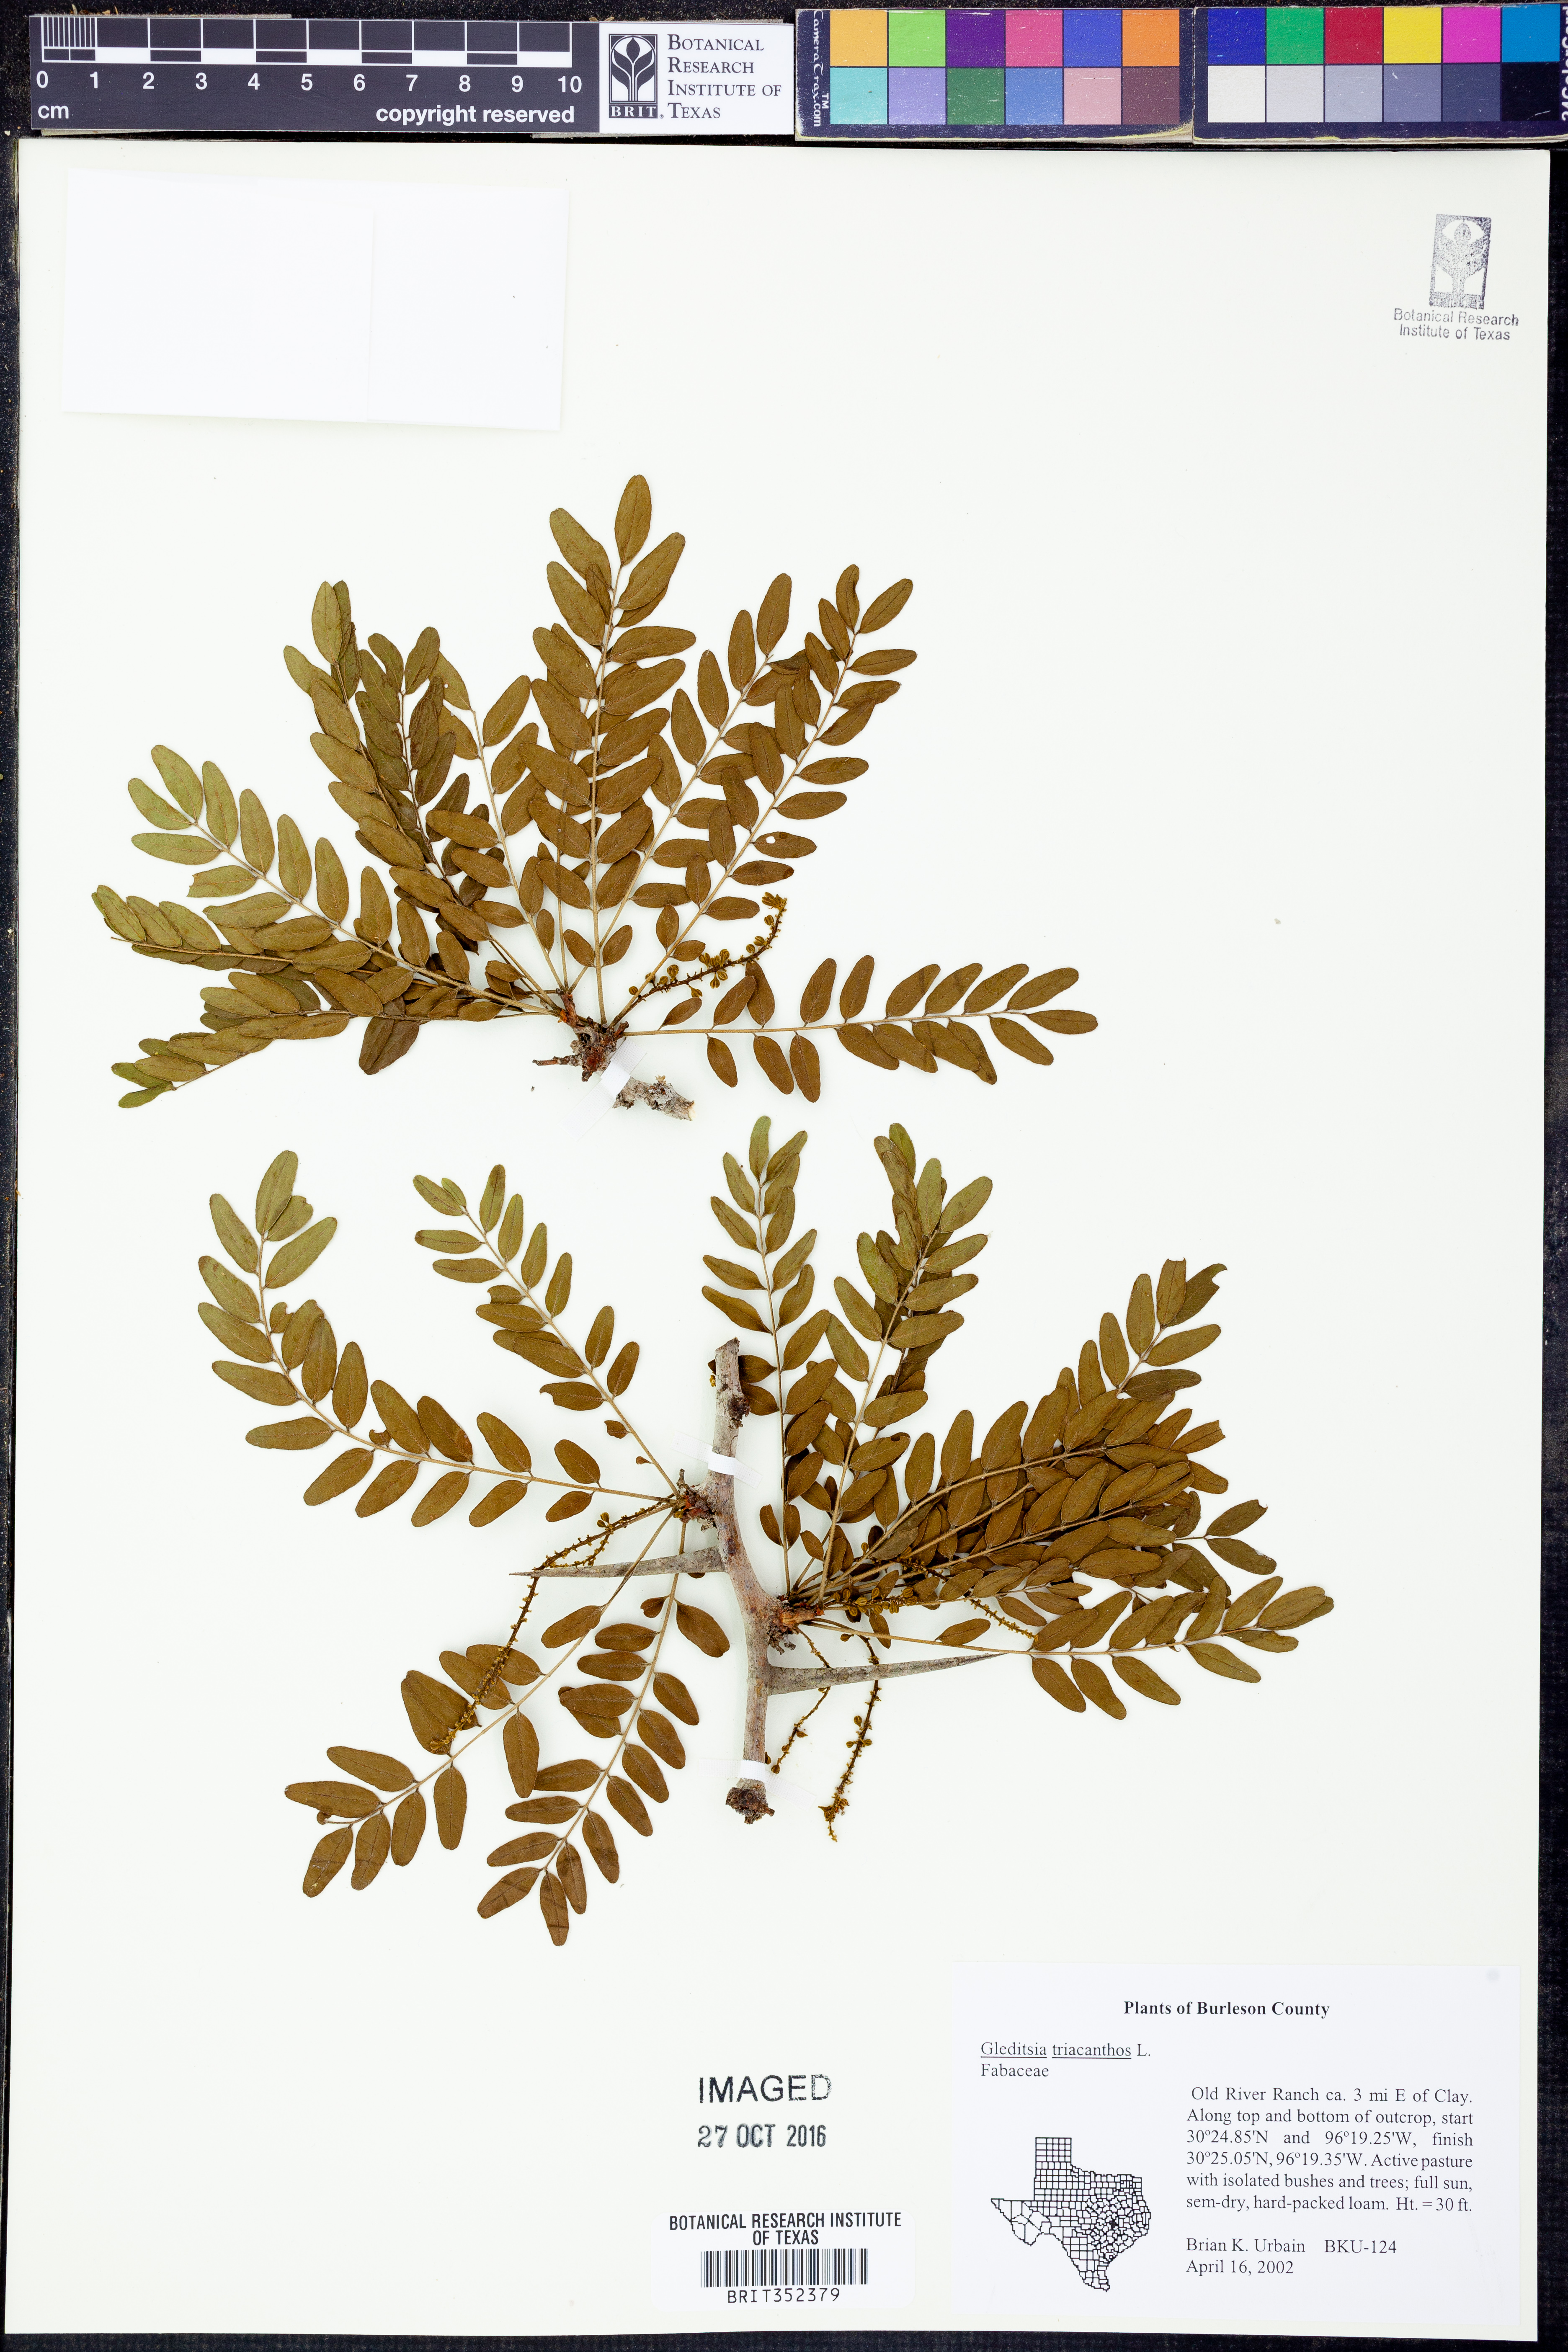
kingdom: Plantae
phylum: Tracheophyta
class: Magnoliopsida
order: Fabales
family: Fabaceae
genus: Gleditsia
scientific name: Gleditsia triacanthos
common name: Common honeylocust
